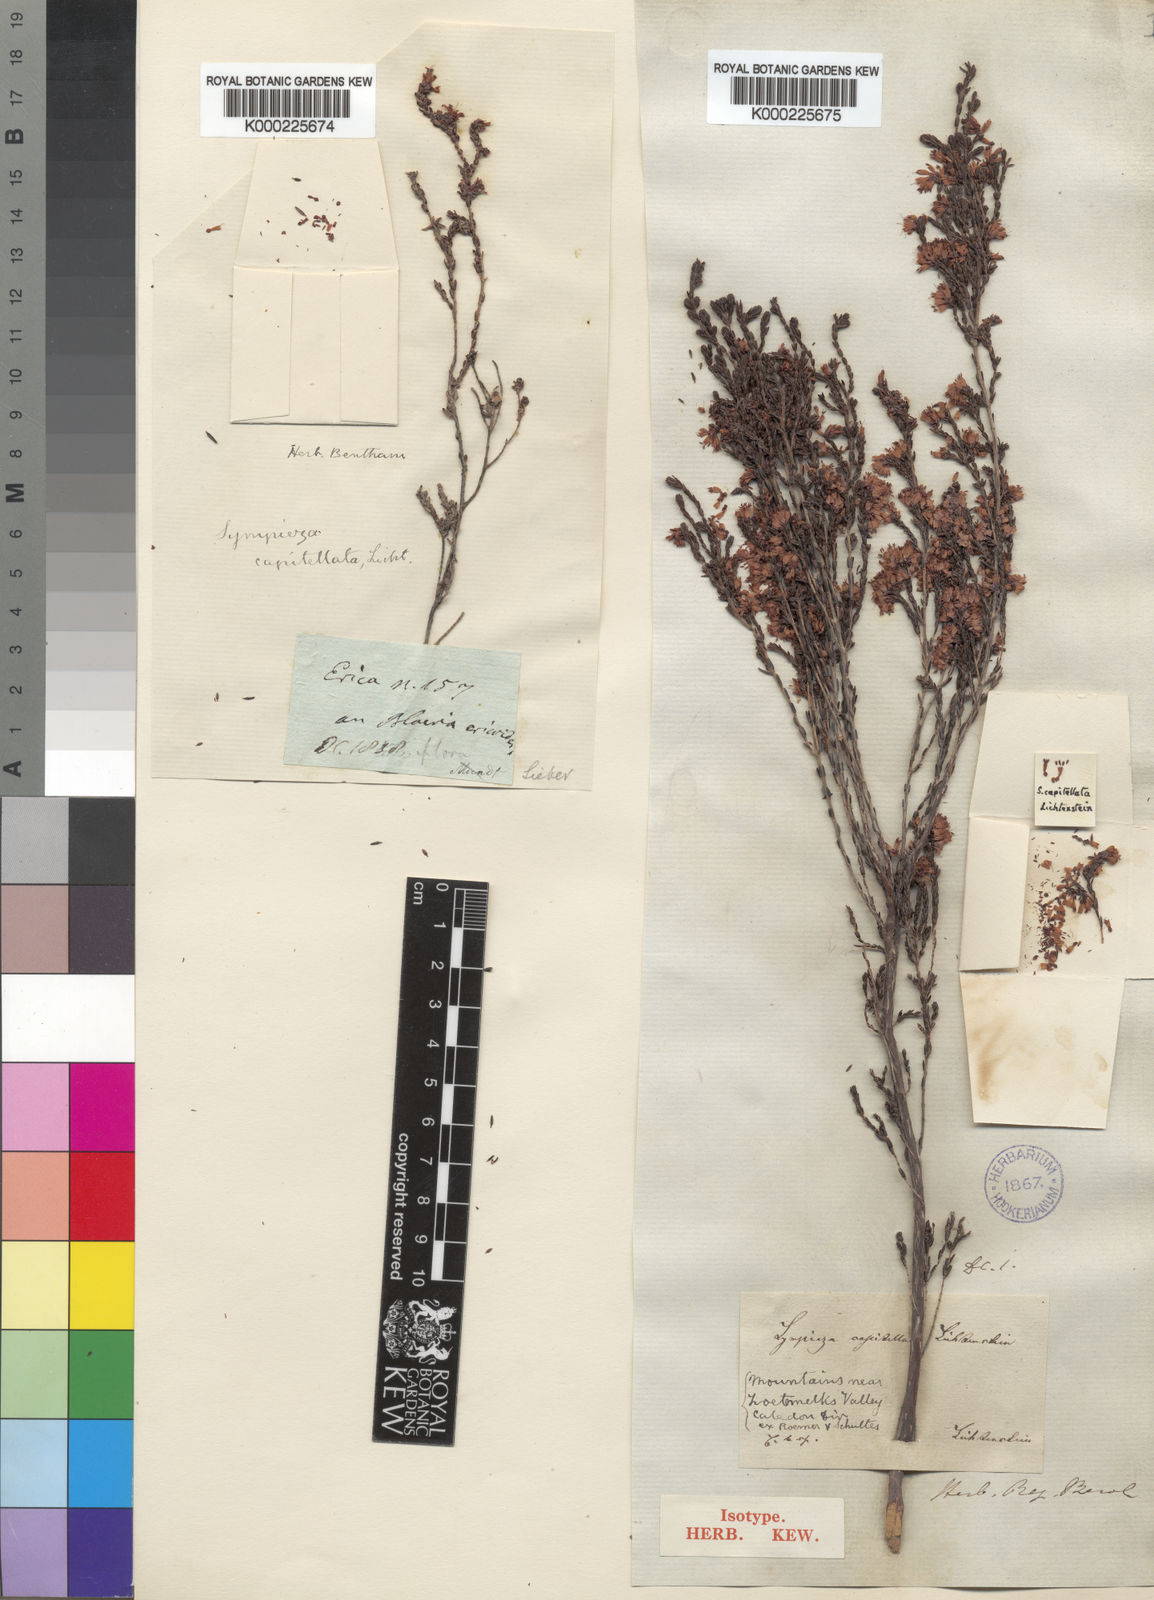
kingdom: Plantae
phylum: Tracheophyta
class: Magnoliopsida
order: Ericales
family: Ericaceae
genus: Erica
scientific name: Erica labialis
